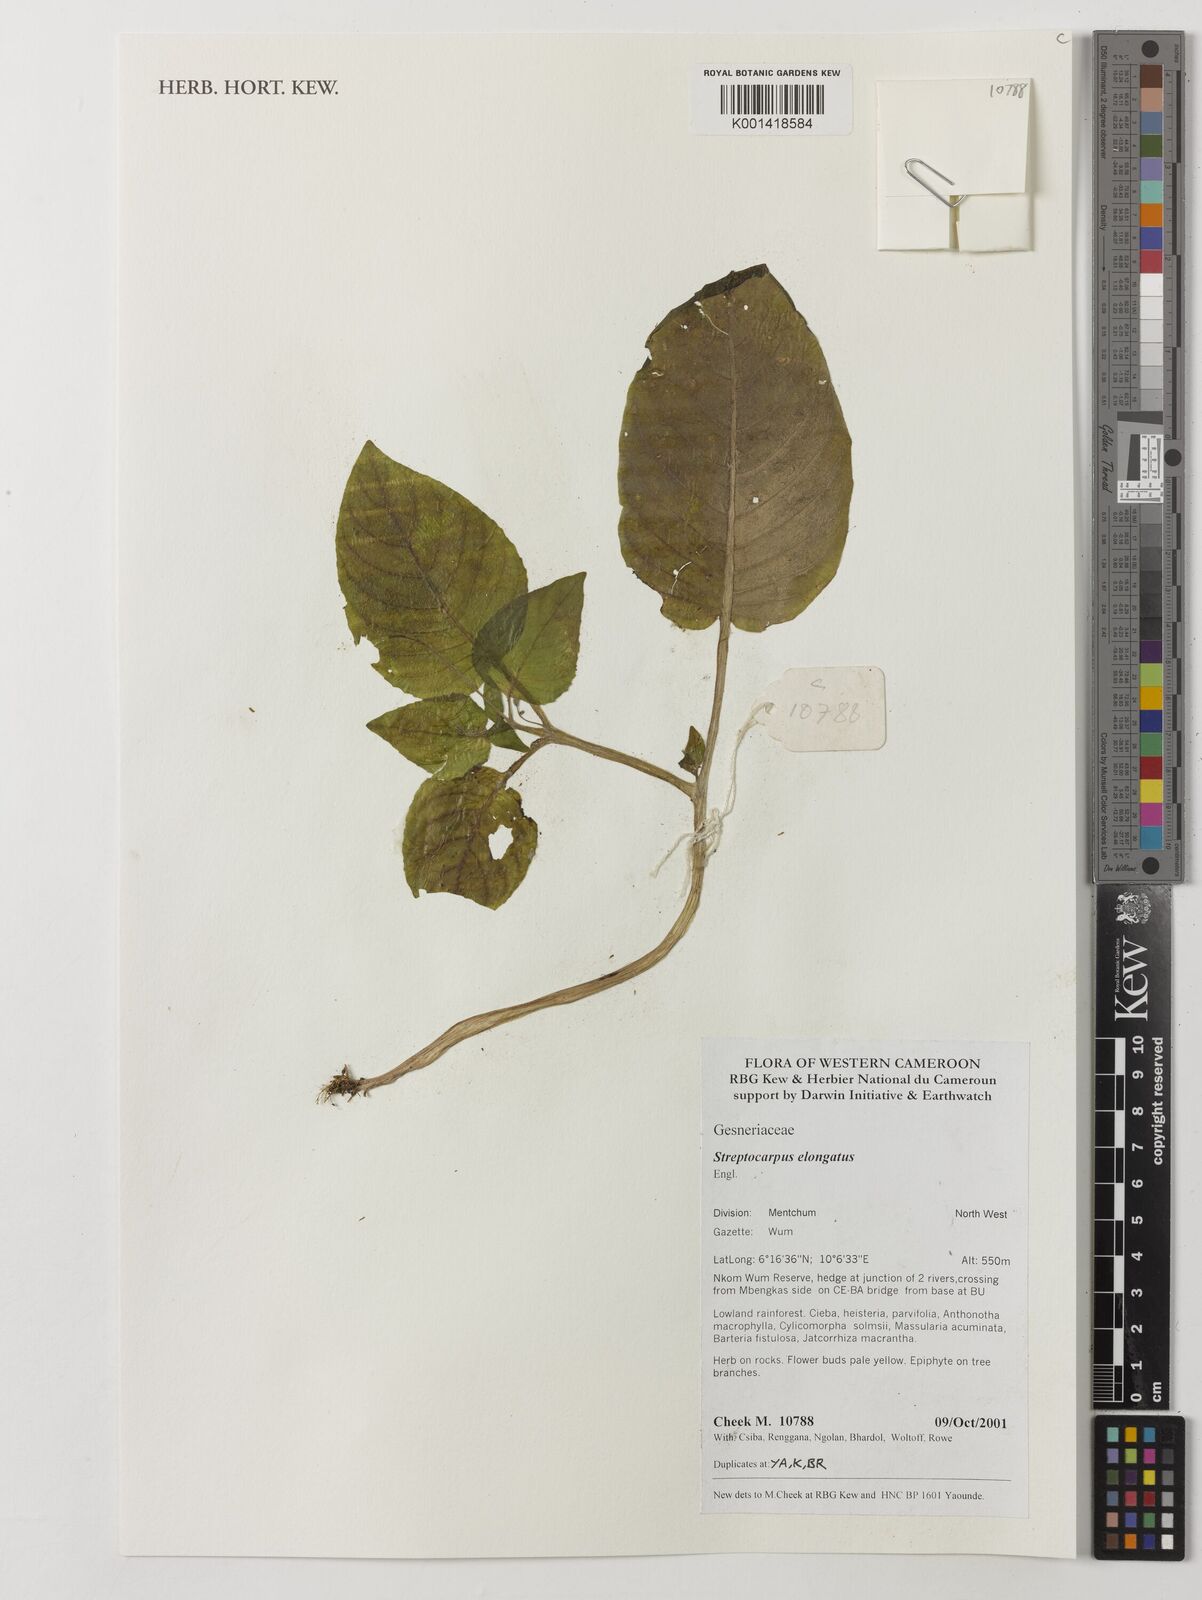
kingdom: Plantae
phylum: Tracheophyta
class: Magnoliopsida
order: Lamiales
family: Gesneriaceae
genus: Streptocarpus
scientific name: Streptocarpus elongatus
